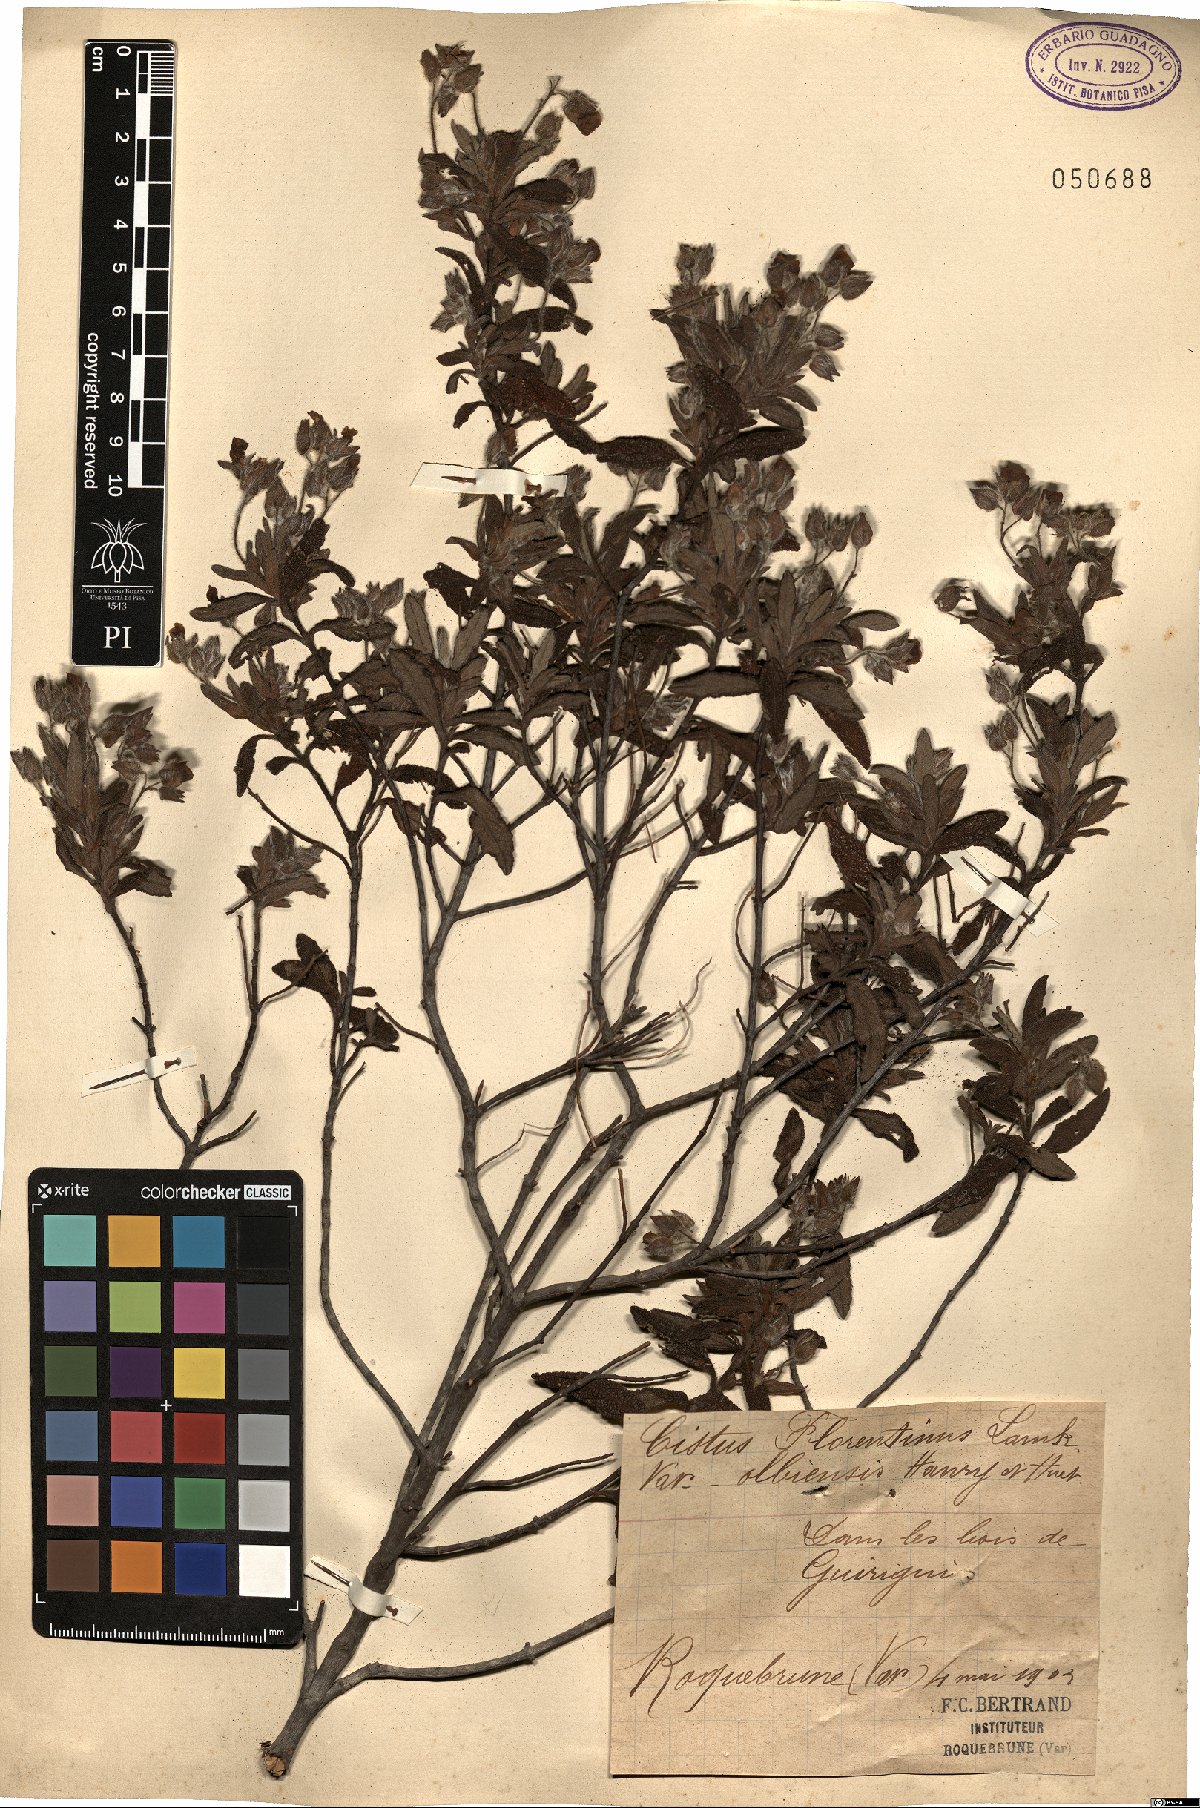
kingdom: Plantae
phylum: Tracheophyta
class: Magnoliopsida
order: Malvales
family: Cistaceae
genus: Cistus
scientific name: Cistus florentinus
